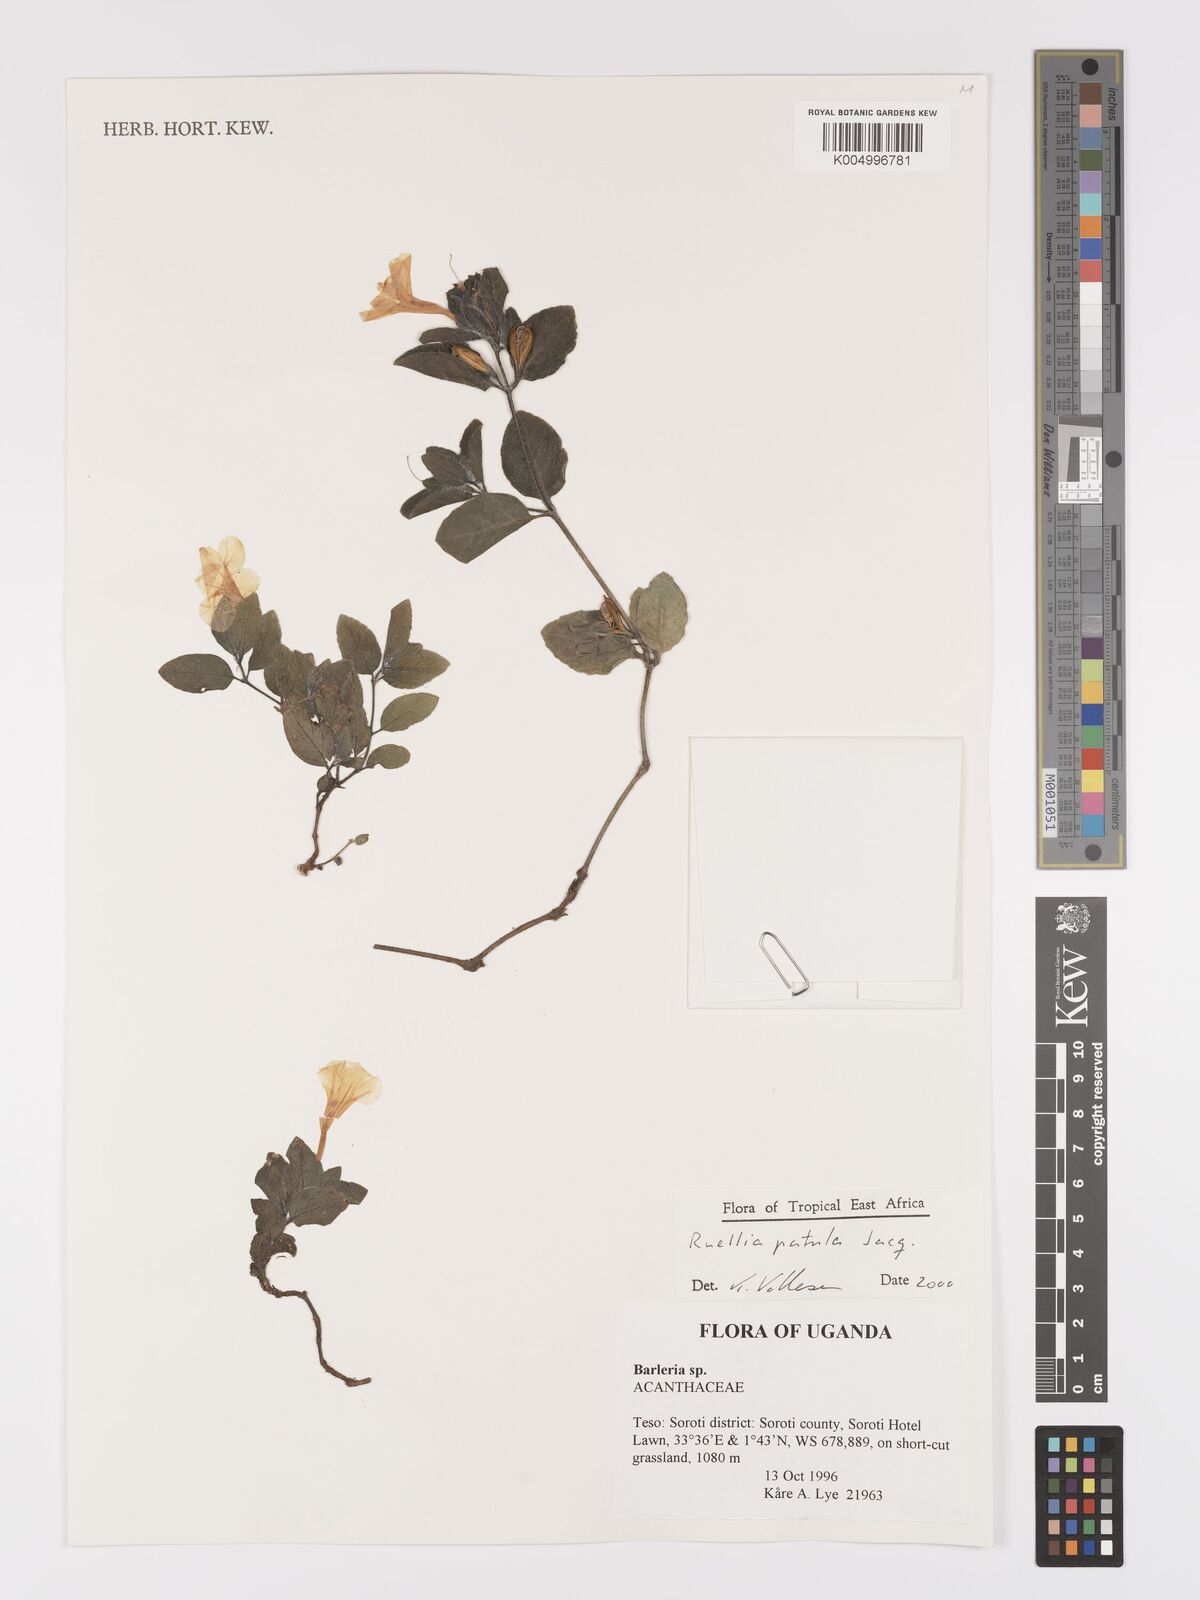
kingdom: Plantae
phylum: Tracheophyta
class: Magnoliopsida
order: Lamiales
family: Acanthaceae
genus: Ruellia
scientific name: Ruellia patula
